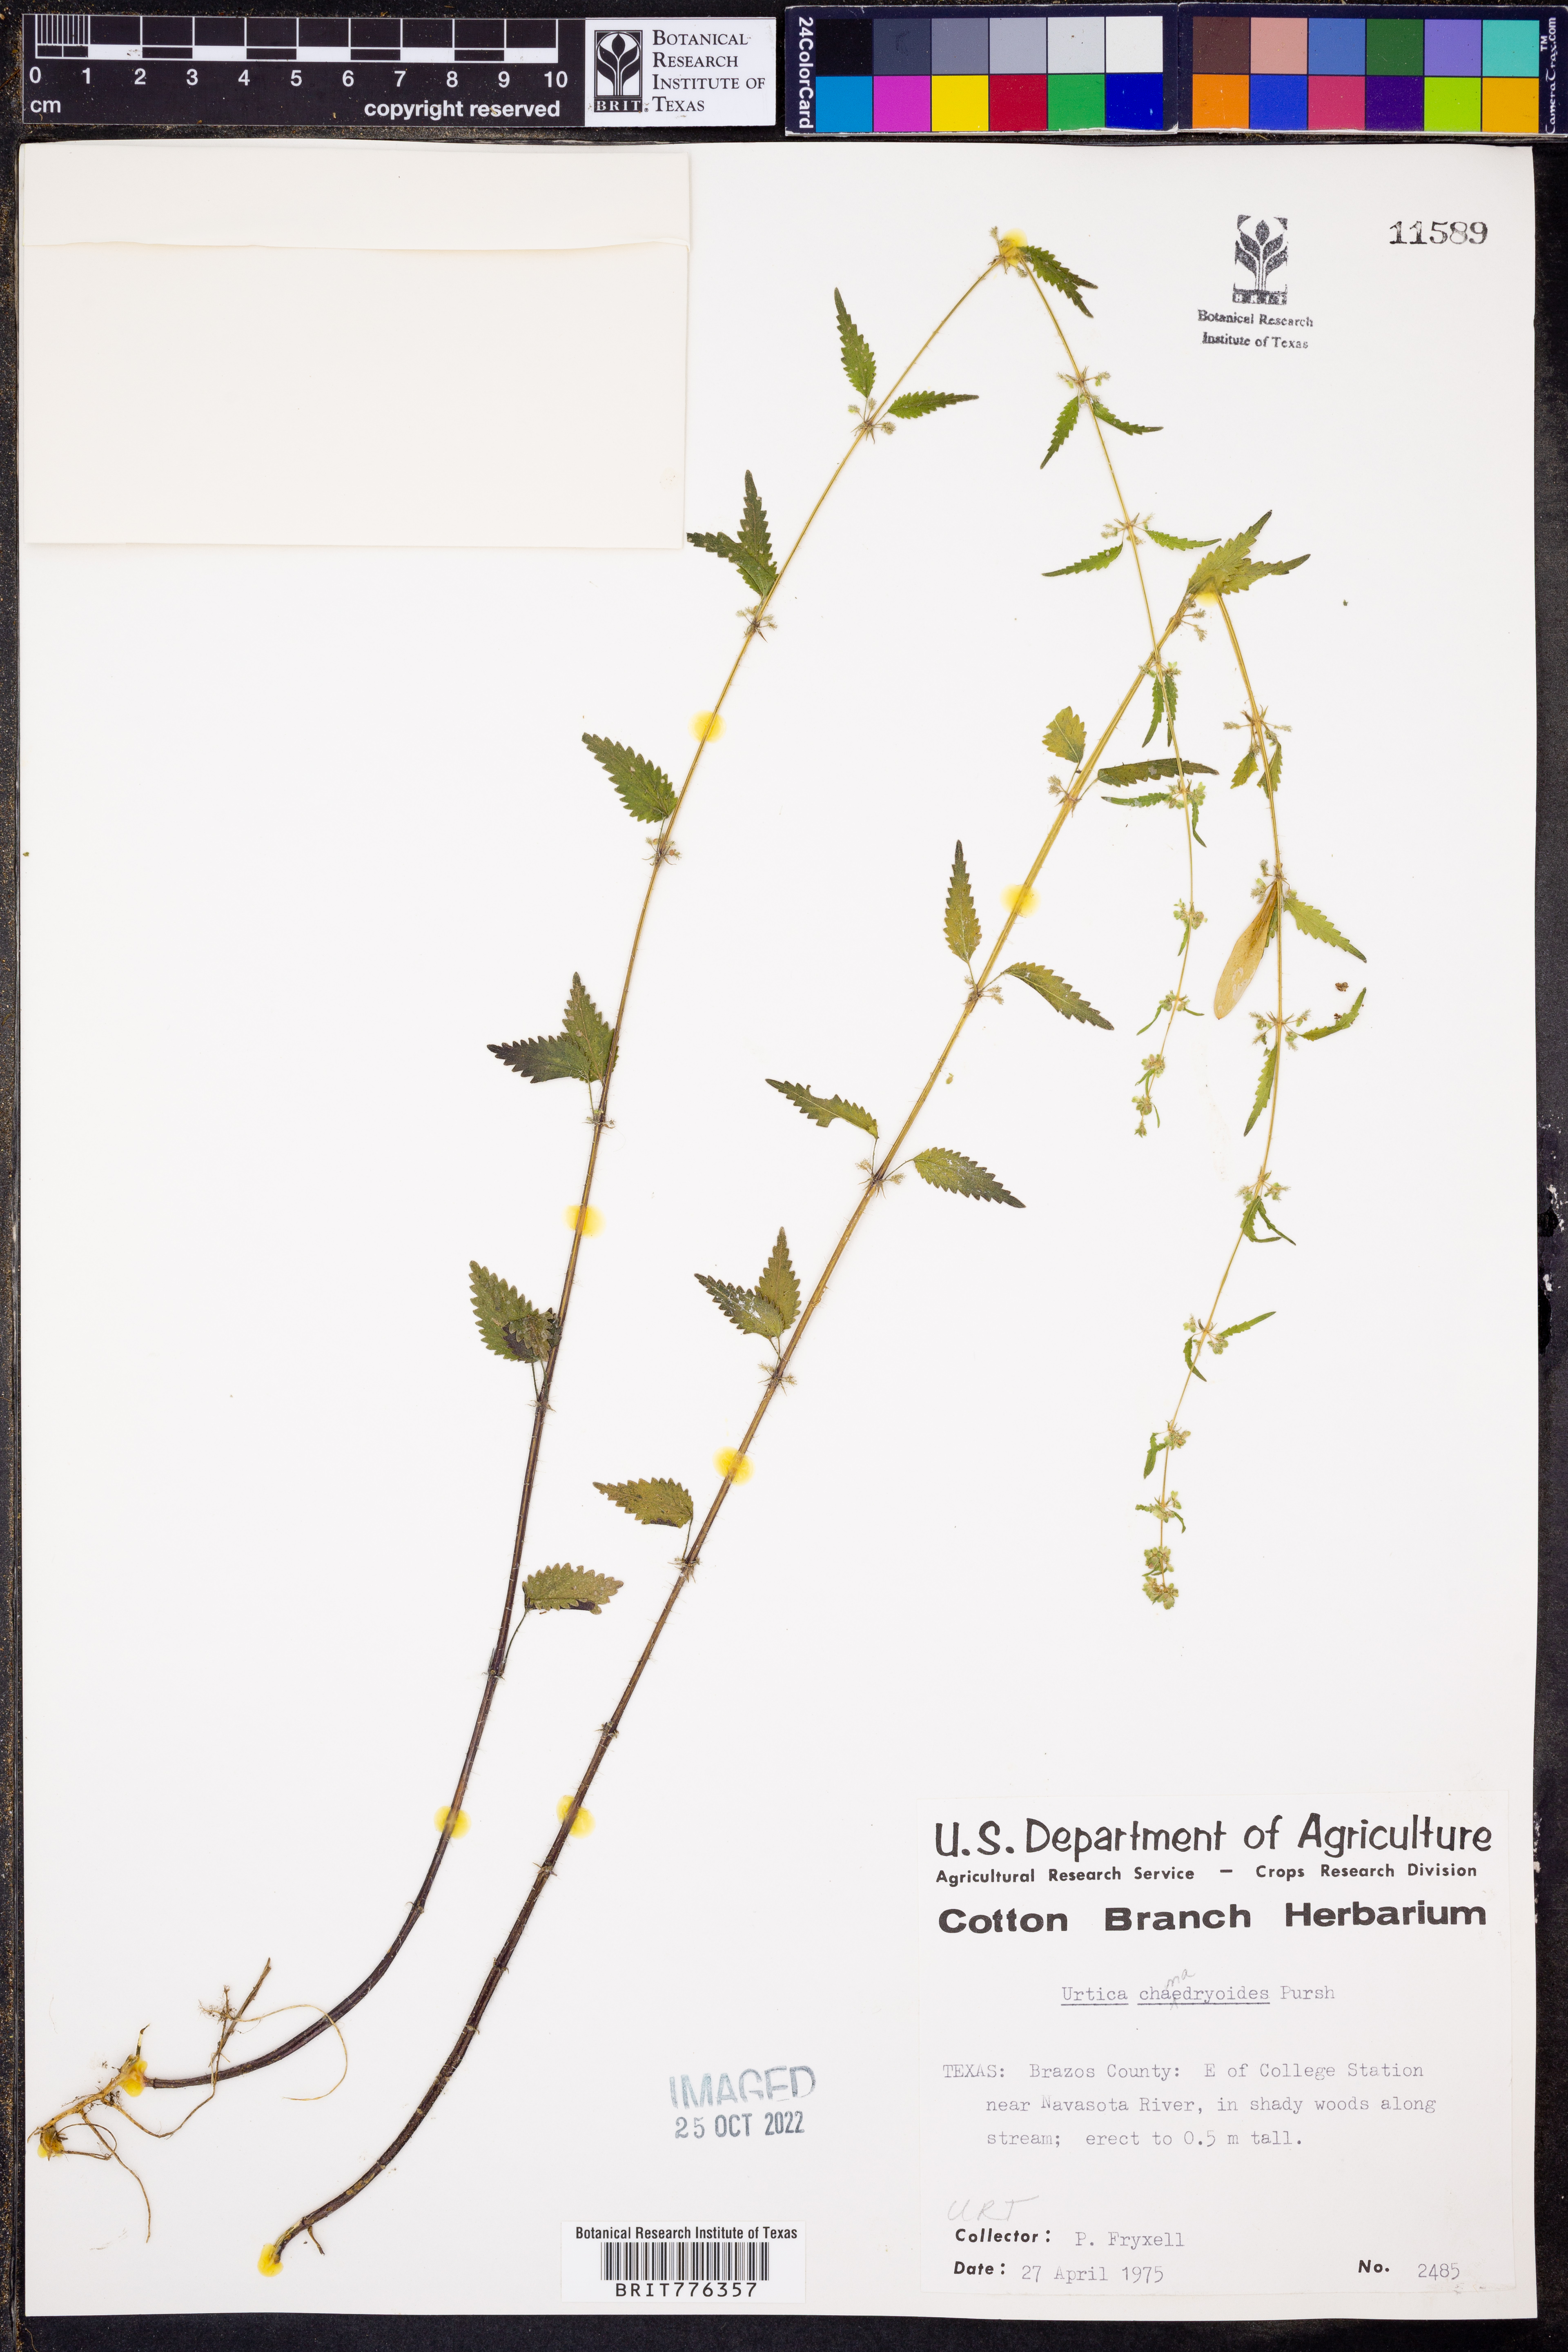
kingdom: Plantae
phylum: Tracheophyta
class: Magnoliopsida
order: Rosales
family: Urticaceae
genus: Urtica
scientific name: Urtica chamaedryoides
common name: Heart-leaf nettle
